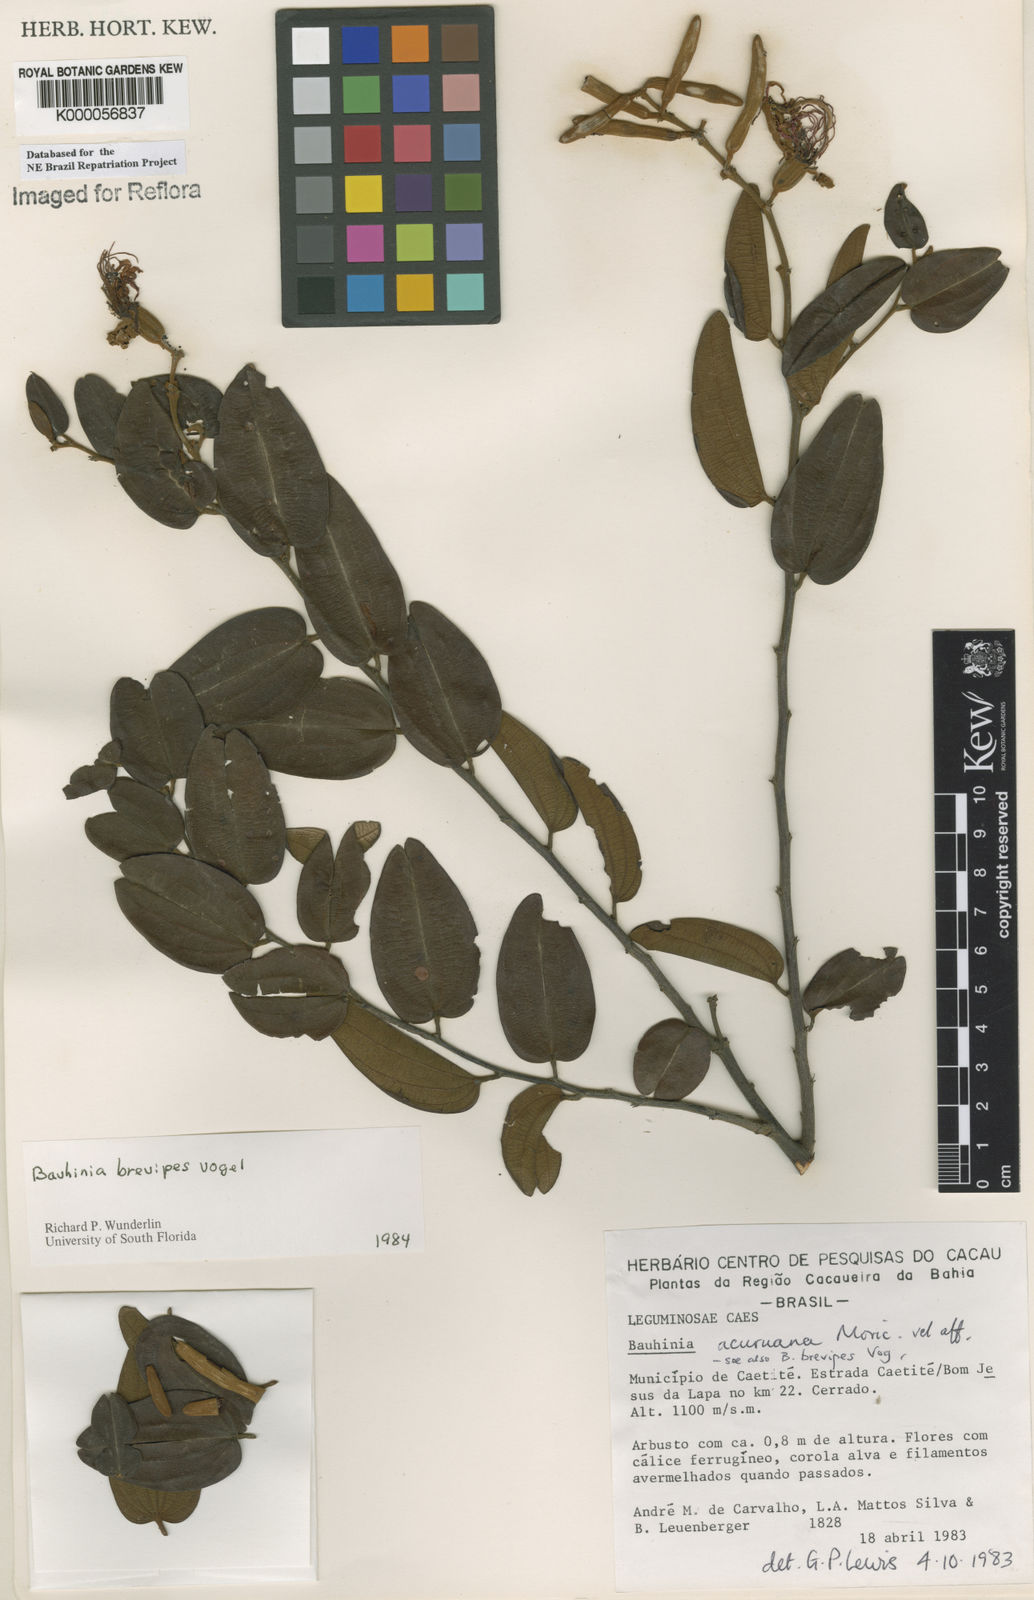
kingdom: Plantae
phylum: Tracheophyta
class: Magnoliopsida
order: Fabales
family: Fabaceae
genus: Bauhinia
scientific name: Bauhinia brevipes
